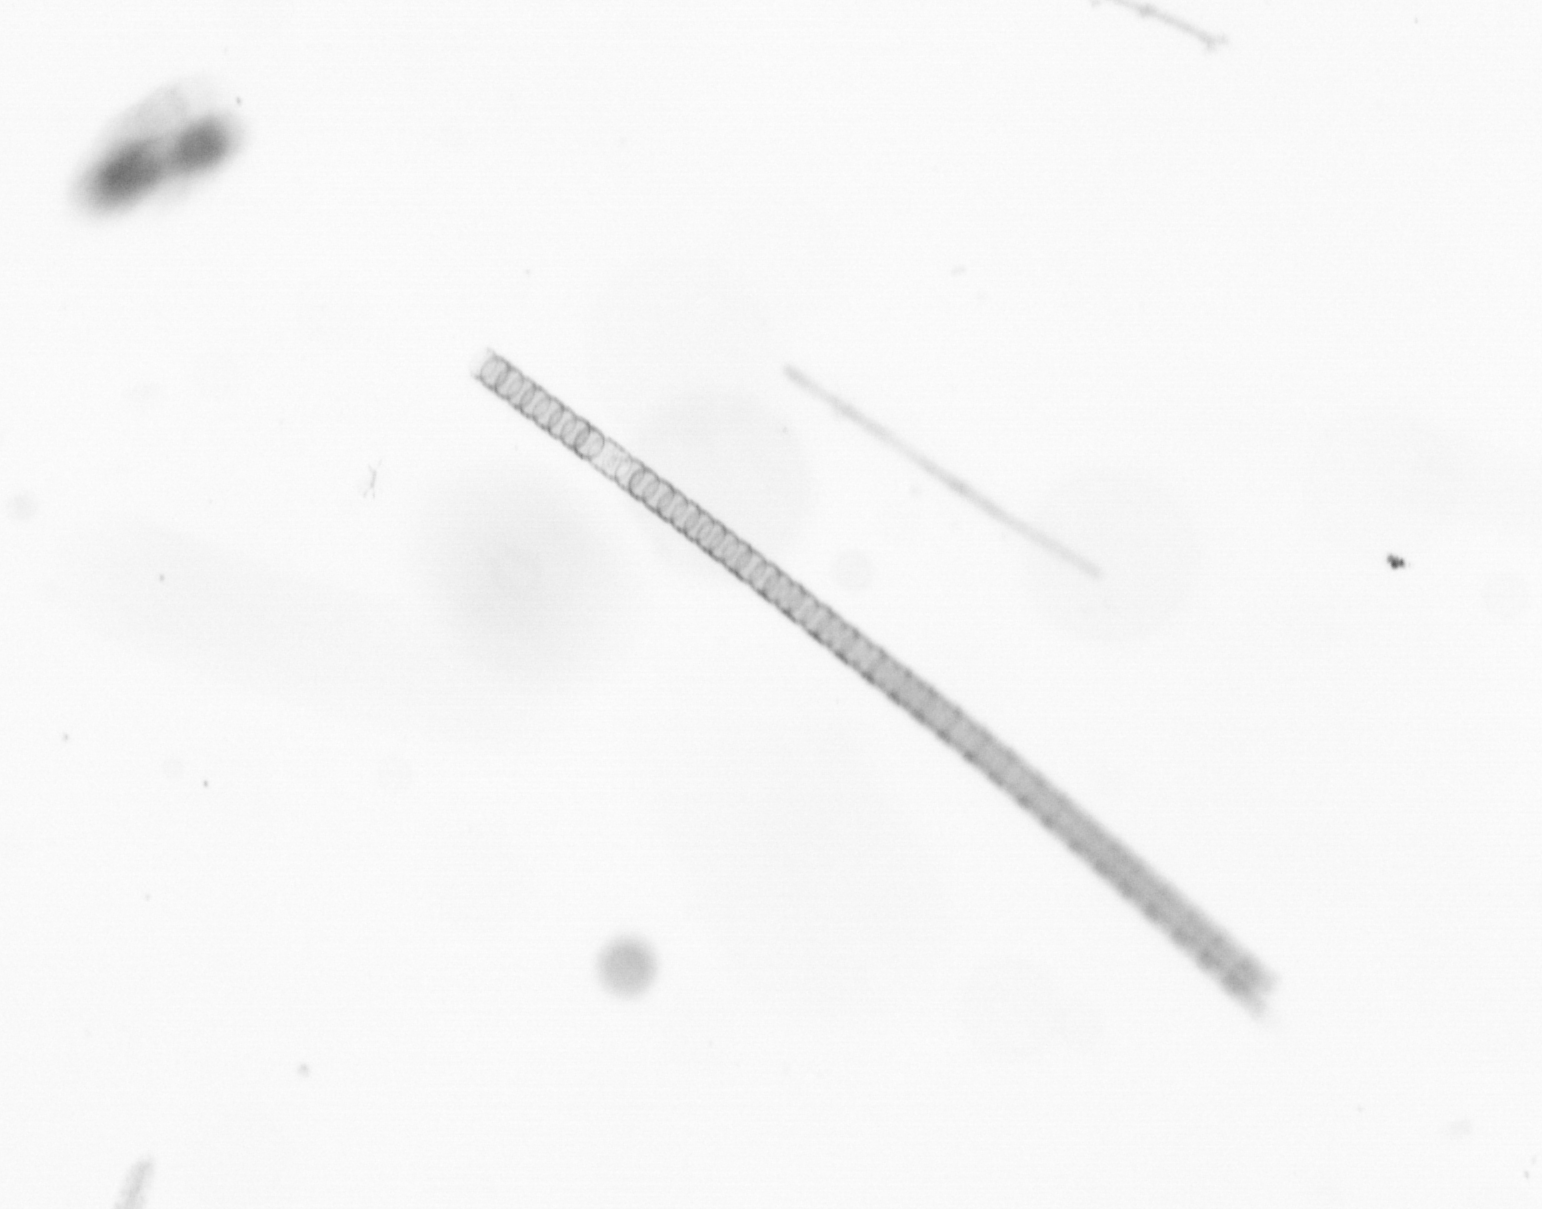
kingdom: Chromista
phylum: Ochrophyta
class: Bacillariophyceae
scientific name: Bacillariophyceae
